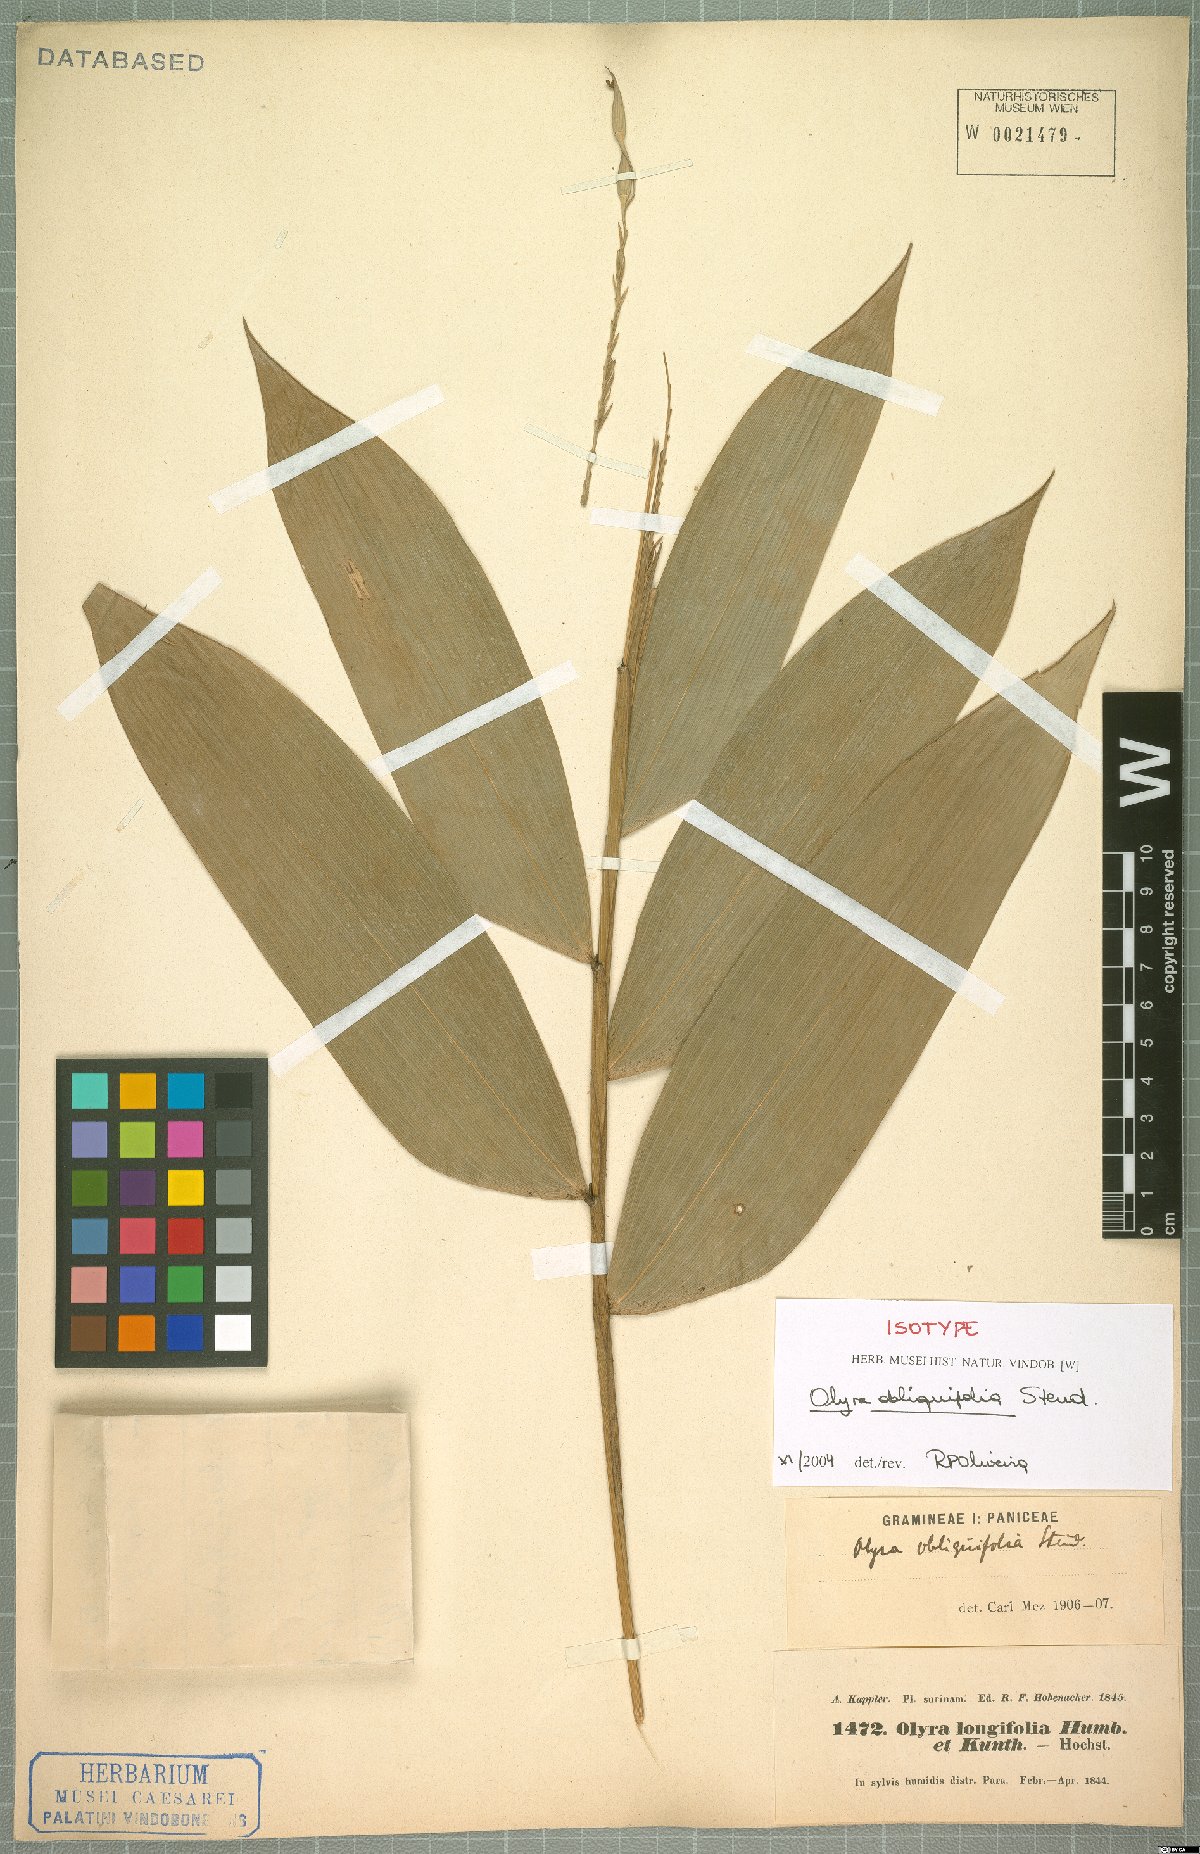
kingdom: Plantae
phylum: Tracheophyta
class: Liliopsida
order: Poales
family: Poaceae
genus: Olyra
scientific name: Olyra obliquifolia
